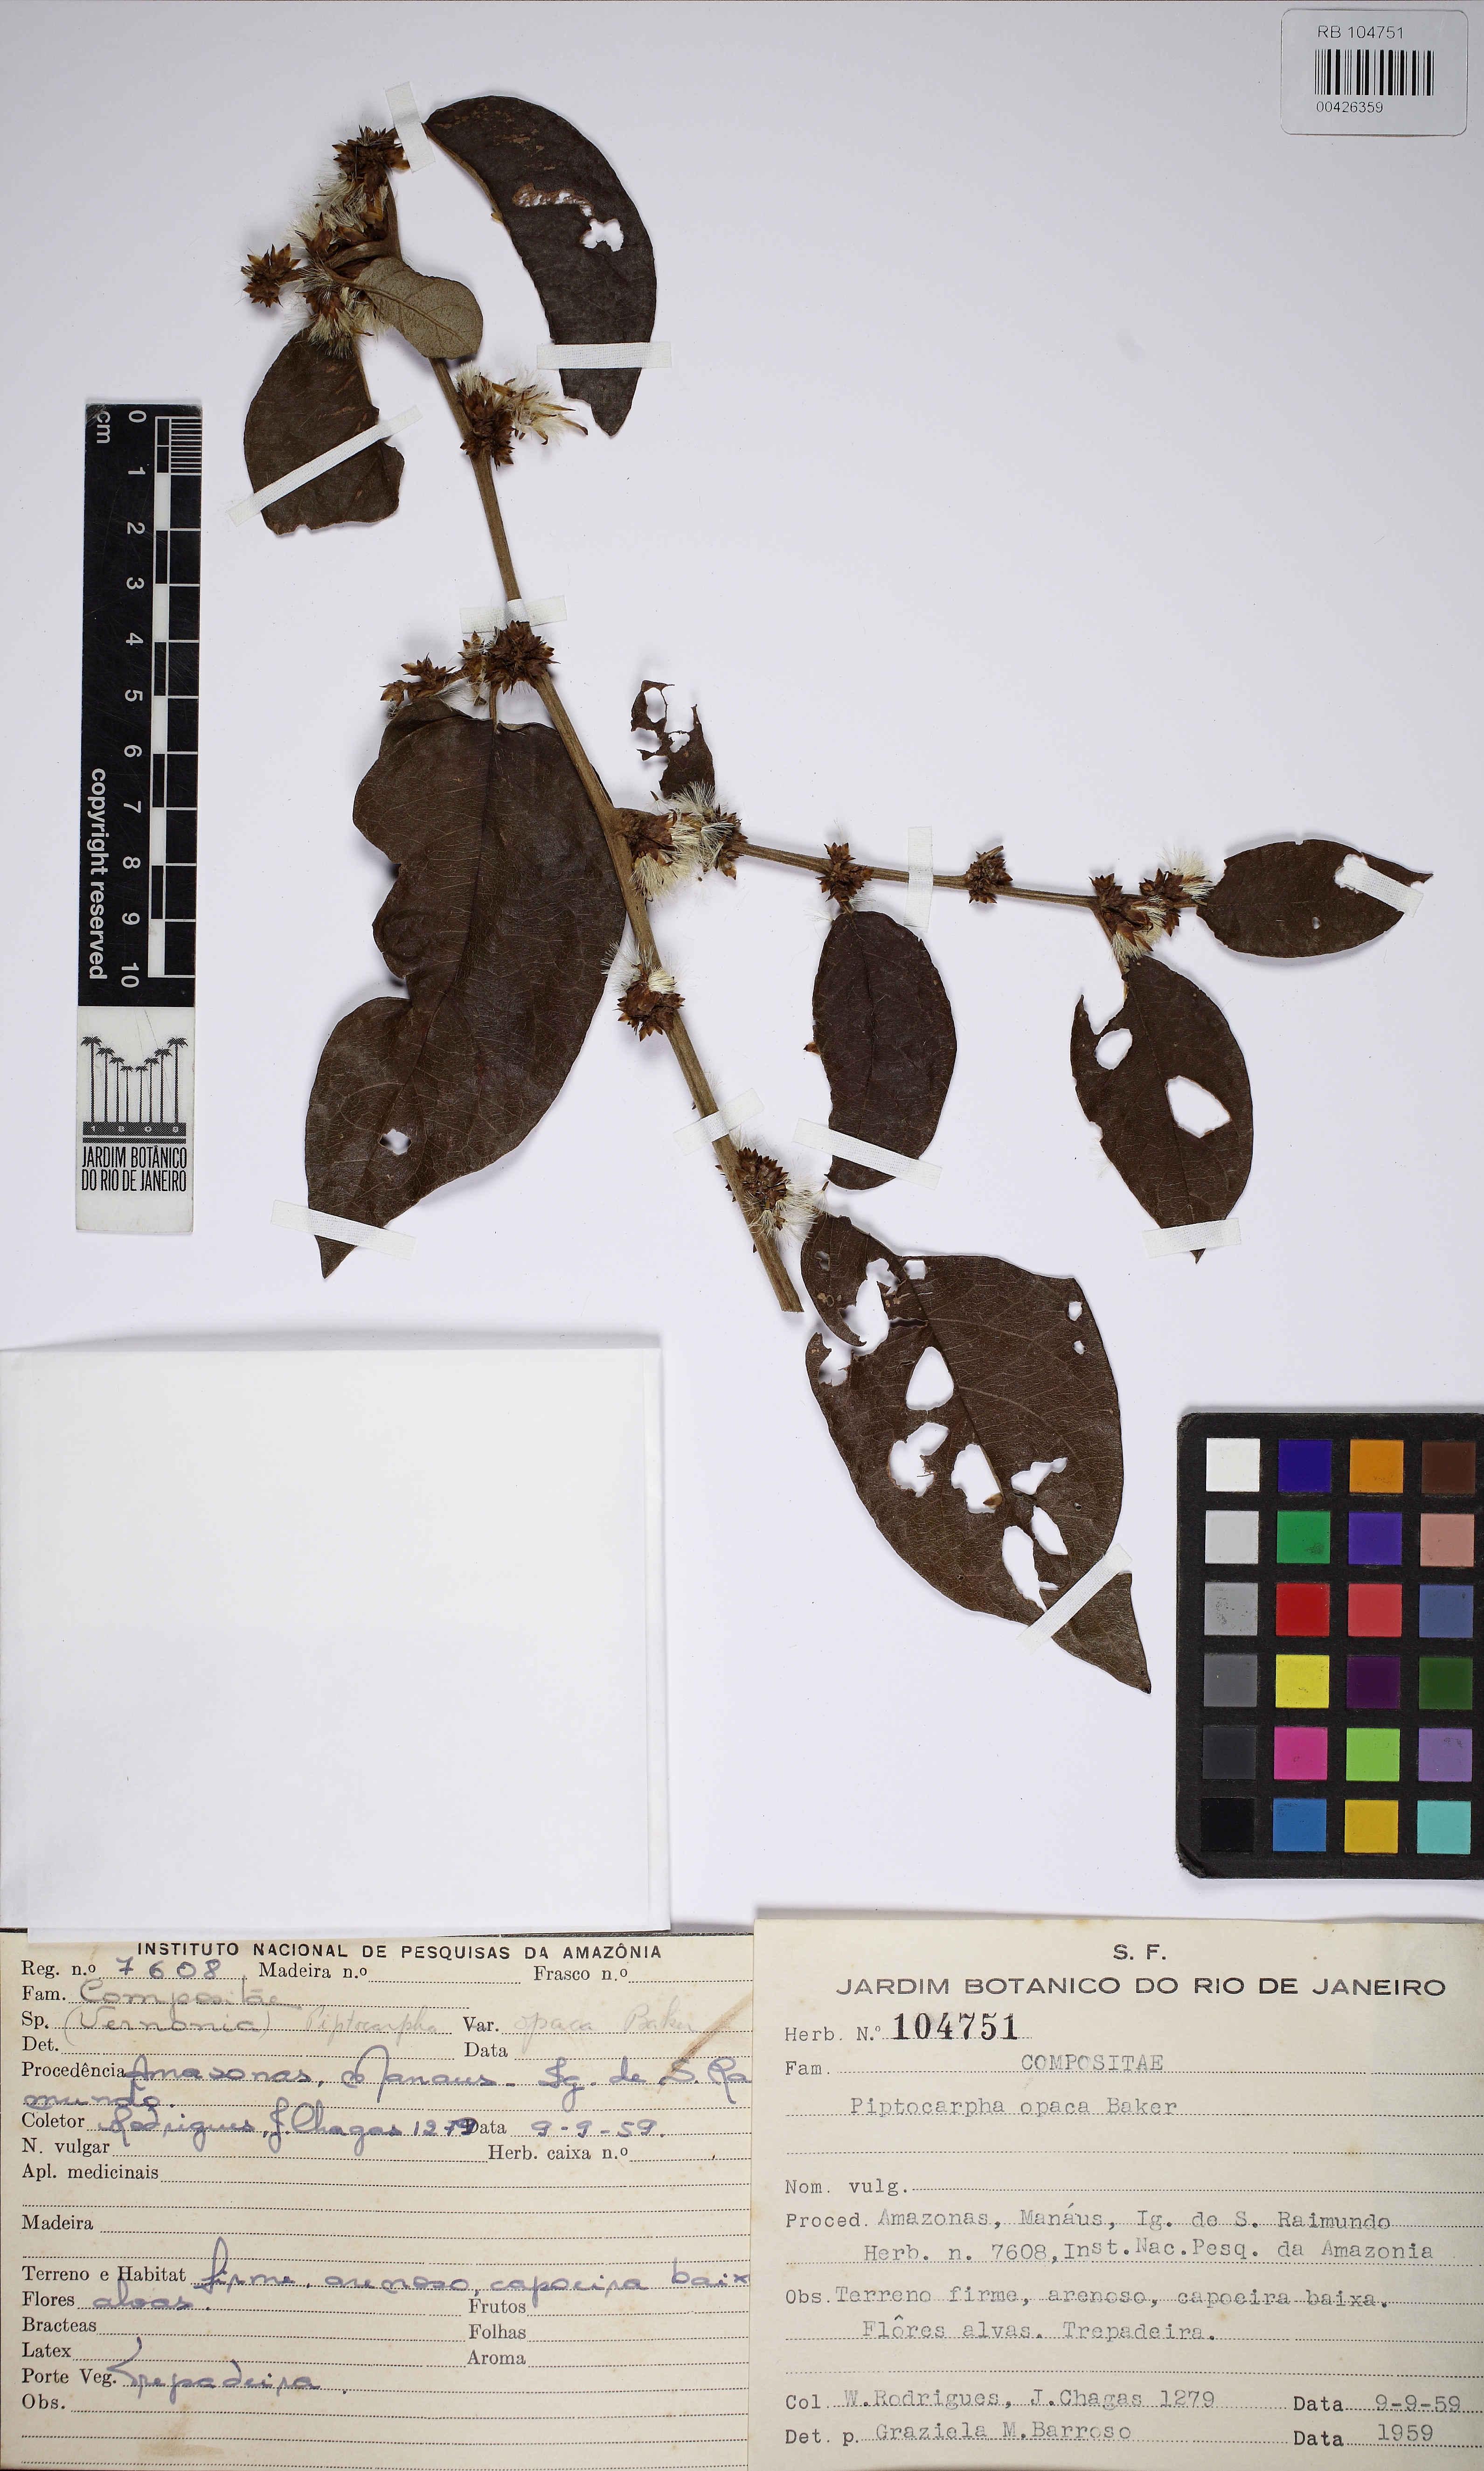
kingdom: Plantae
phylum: Tracheophyta
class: Magnoliopsida
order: Asterales
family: Asteraceae
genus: Piptocarpha
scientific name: Piptocarpha opaca
